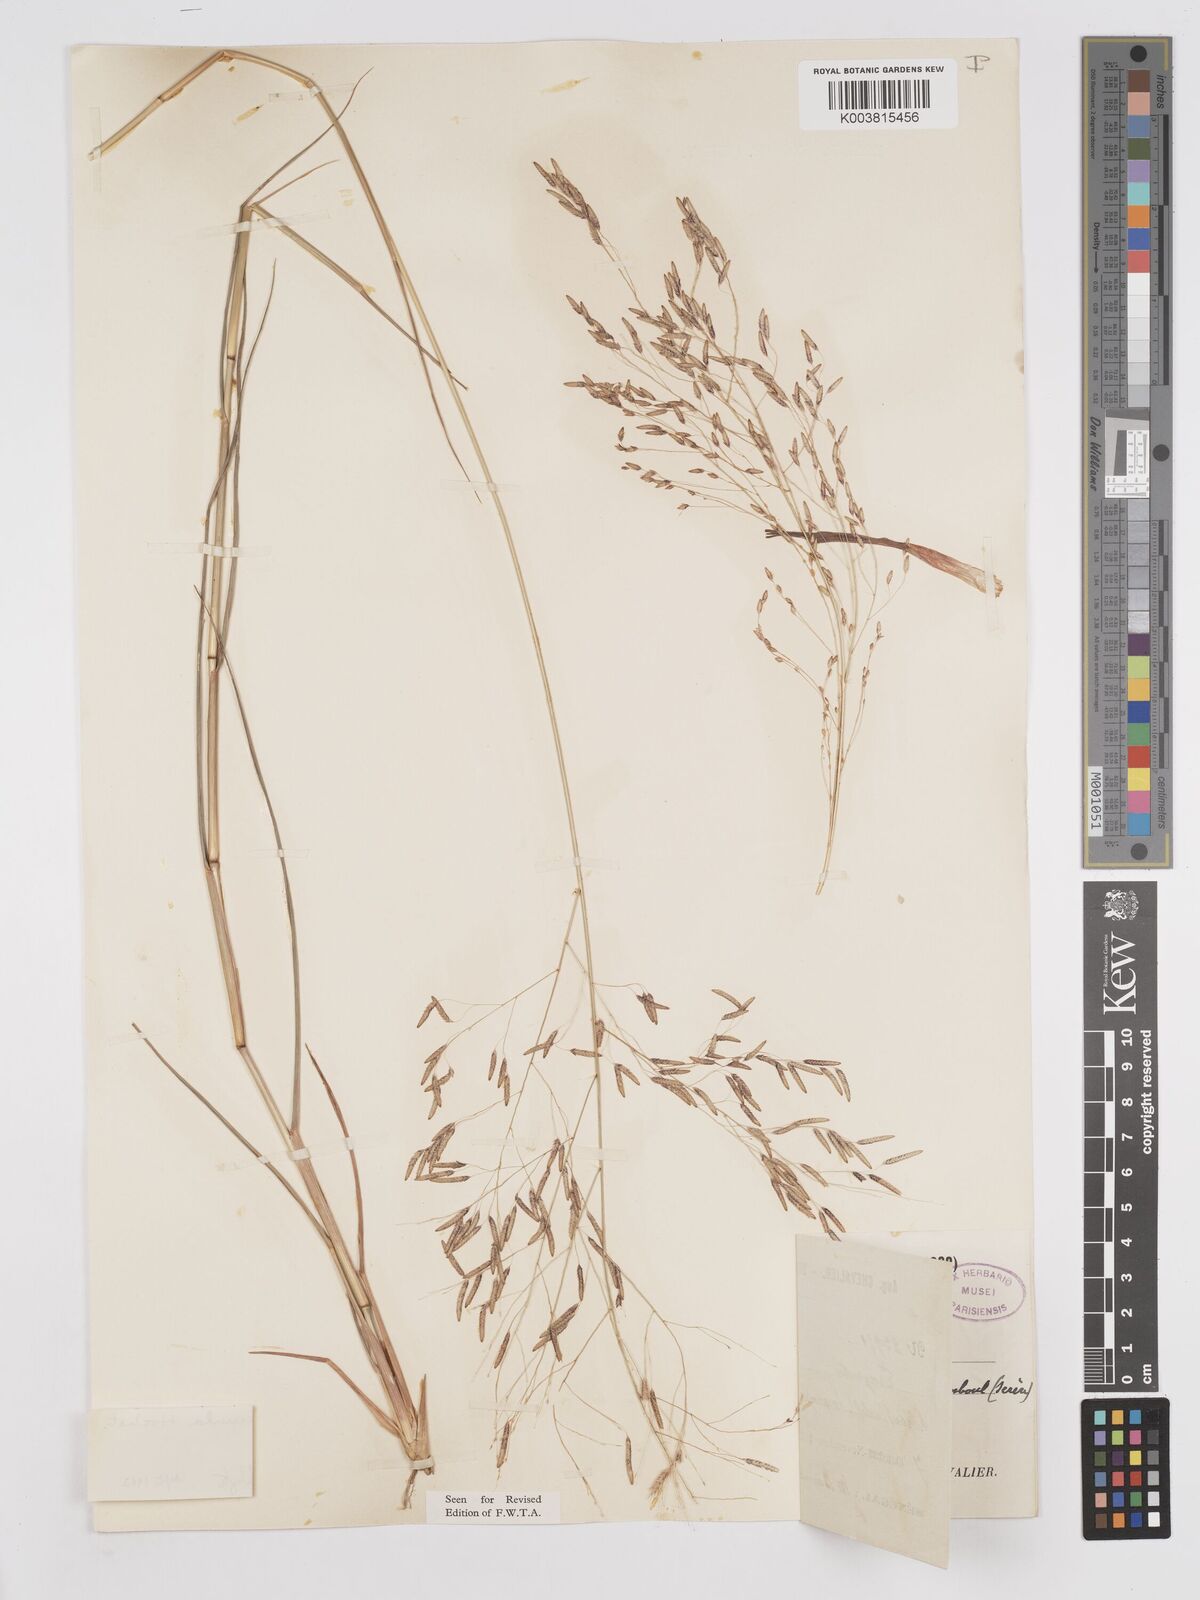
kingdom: Plantae
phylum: Tracheophyta
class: Liliopsida
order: Poales
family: Poaceae
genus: Eragrostis
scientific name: Eragrostis tremula
